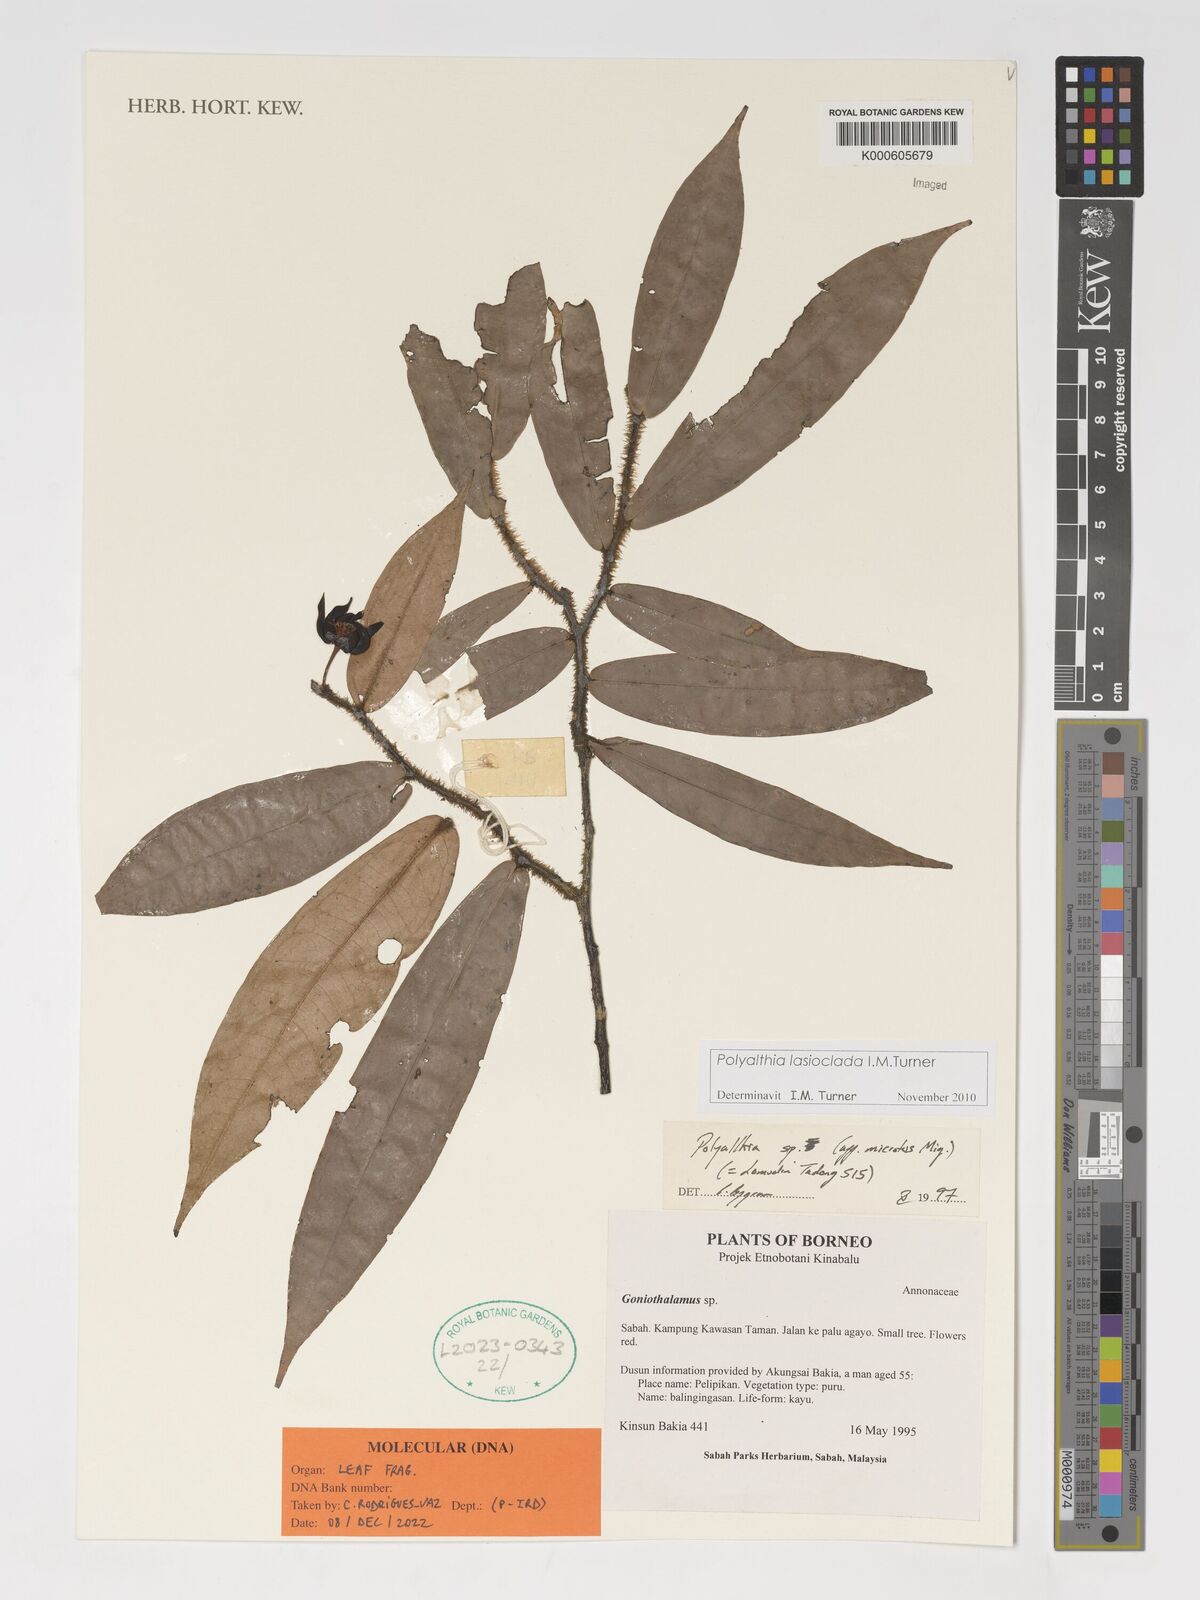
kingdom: Plantae
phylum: Tracheophyta
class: Magnoliopsida
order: Magnoliales
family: Annonaceae
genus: Polyalthia
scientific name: Polyalthia lasioclada
